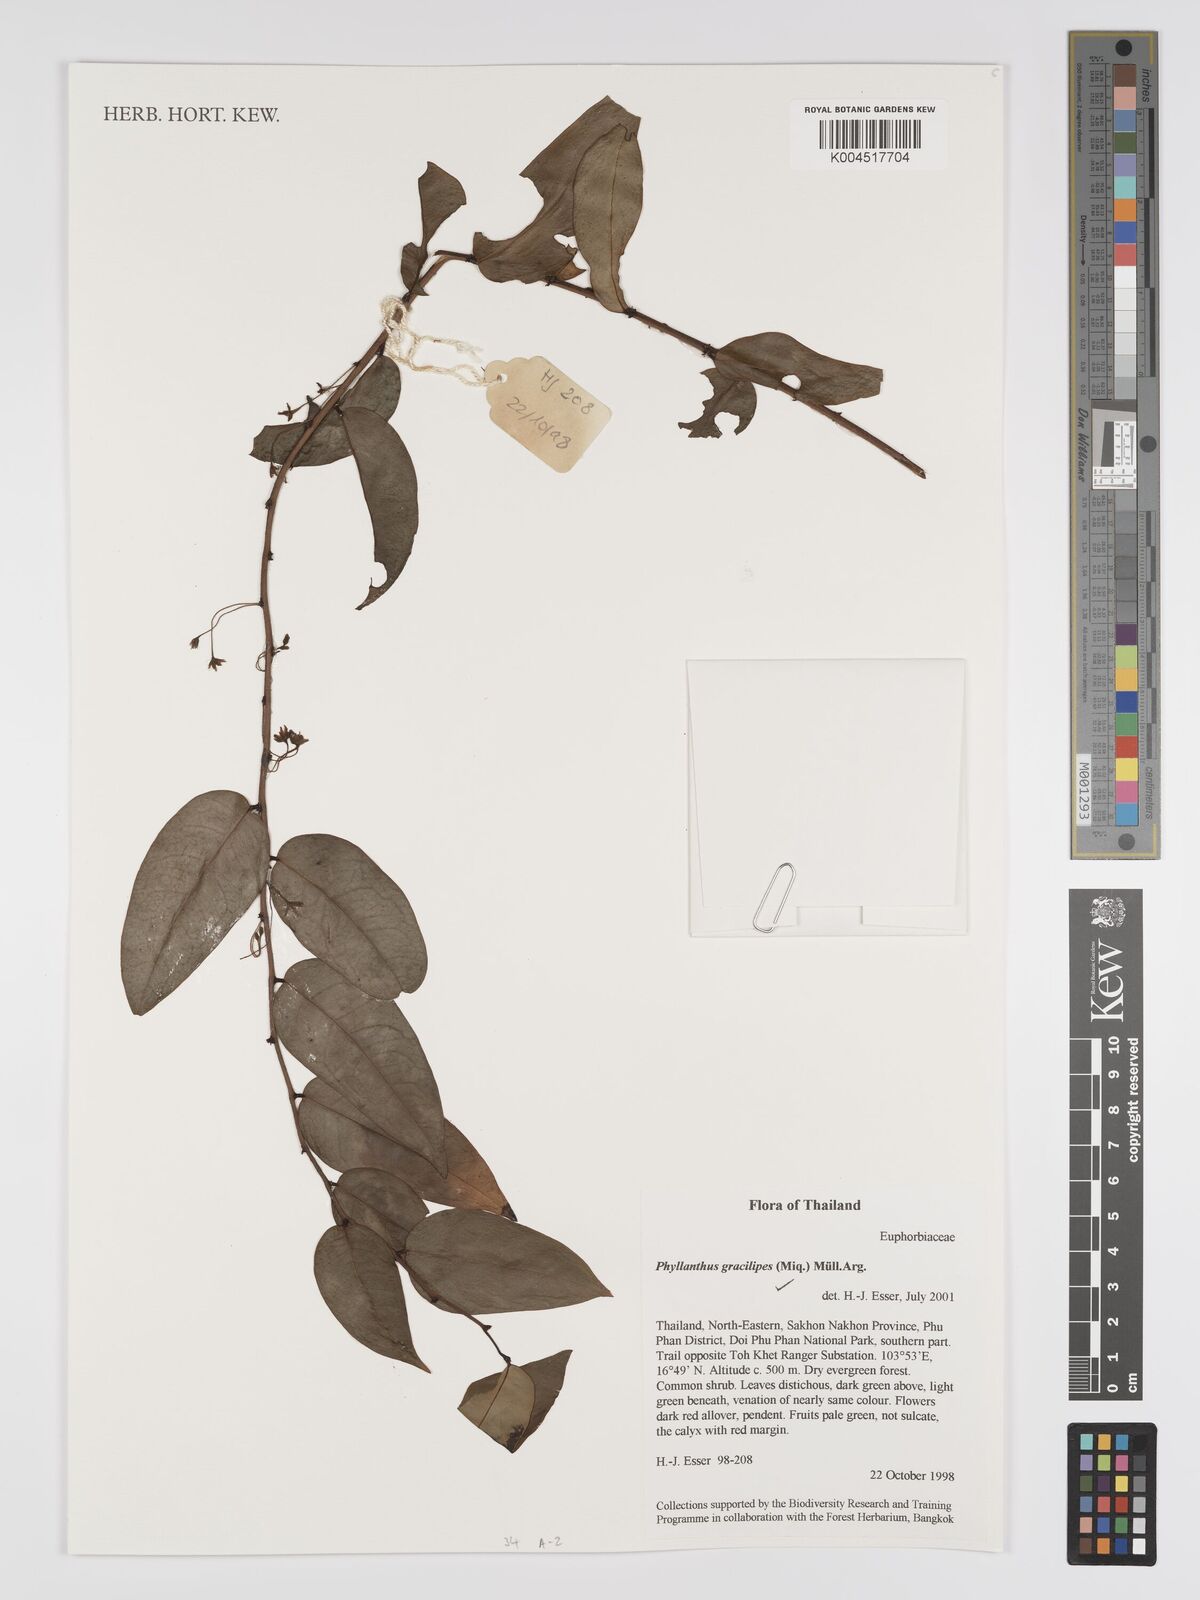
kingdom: Plantae
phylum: Tracheophyta
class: Magnoliopsida
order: Malpighiales
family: Phyllanthaceae
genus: Phyllanthus
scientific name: Phyllanthus
